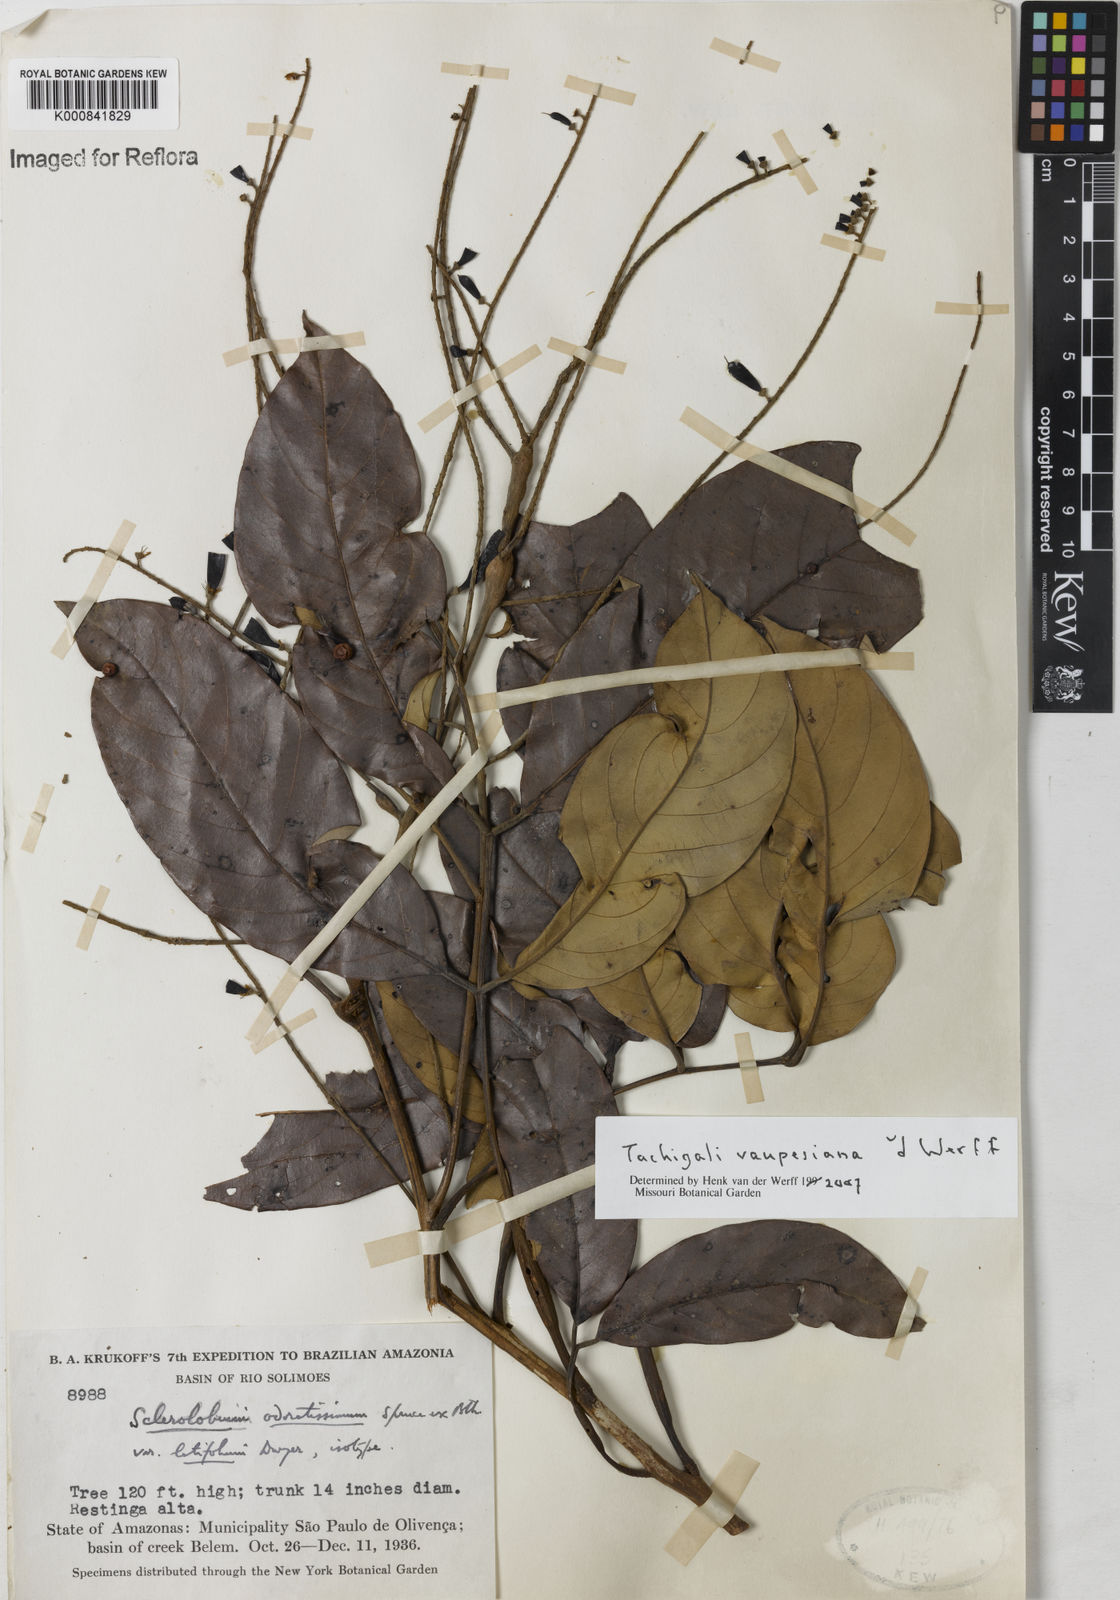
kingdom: Plantae
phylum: Tracheophyta
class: Magnoliopsida
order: Fabales
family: Fabaceae
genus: Tachigali
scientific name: Tachigali vaupesiana
